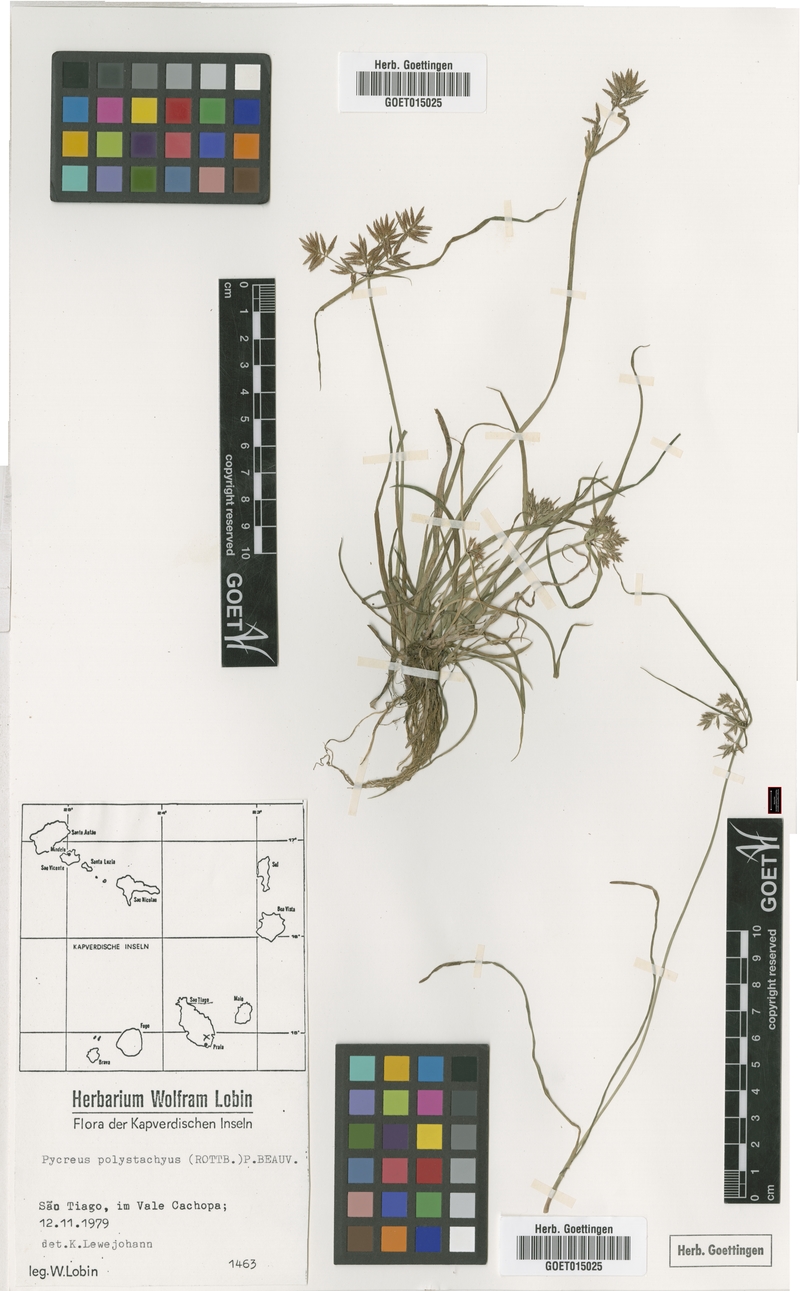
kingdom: Plantae
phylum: Tracheophyta
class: Liliopsida
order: Poales
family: Cyperaceae
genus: Cyperus
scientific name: Cyperus polystachyos
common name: Bunchy flat sedge
